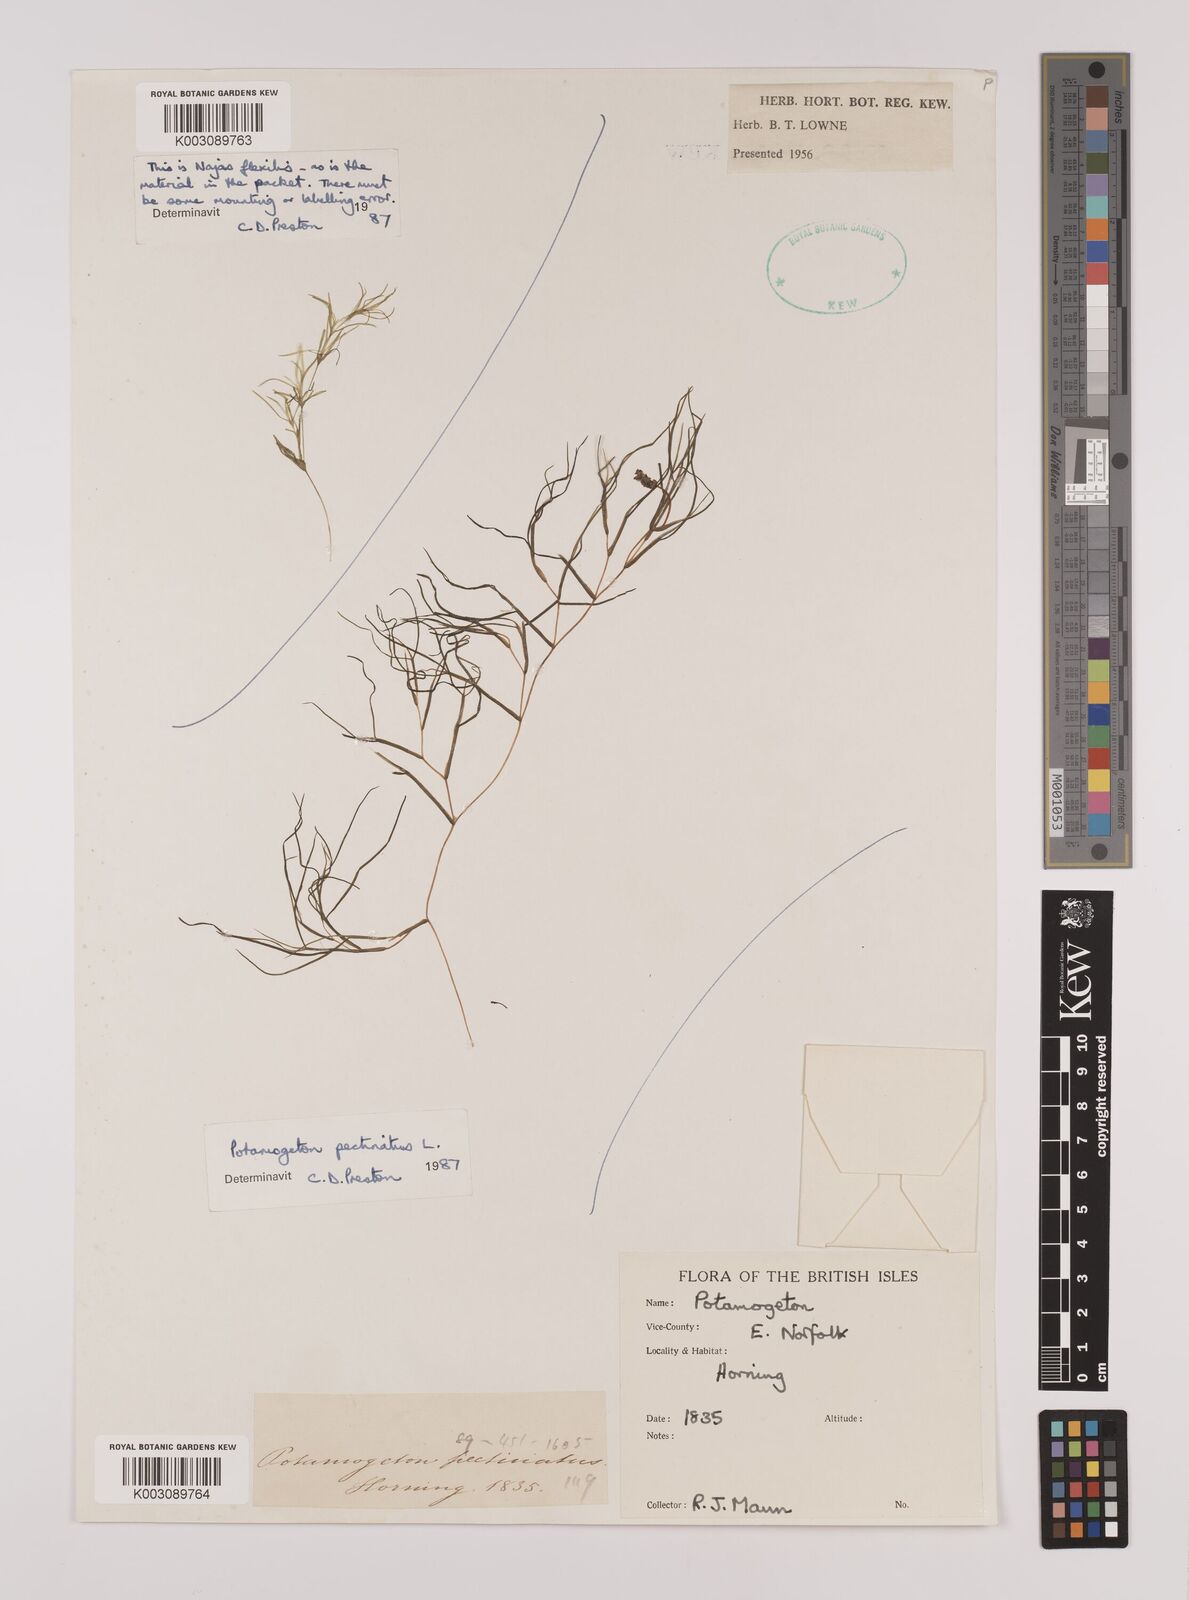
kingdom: Plantae
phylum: Tracheophyta
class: Liliopsida
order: Alismatales
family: Potamogetonaceae
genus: Stuckenia
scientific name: Stuckenia pectinata
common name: Sago pondweed
